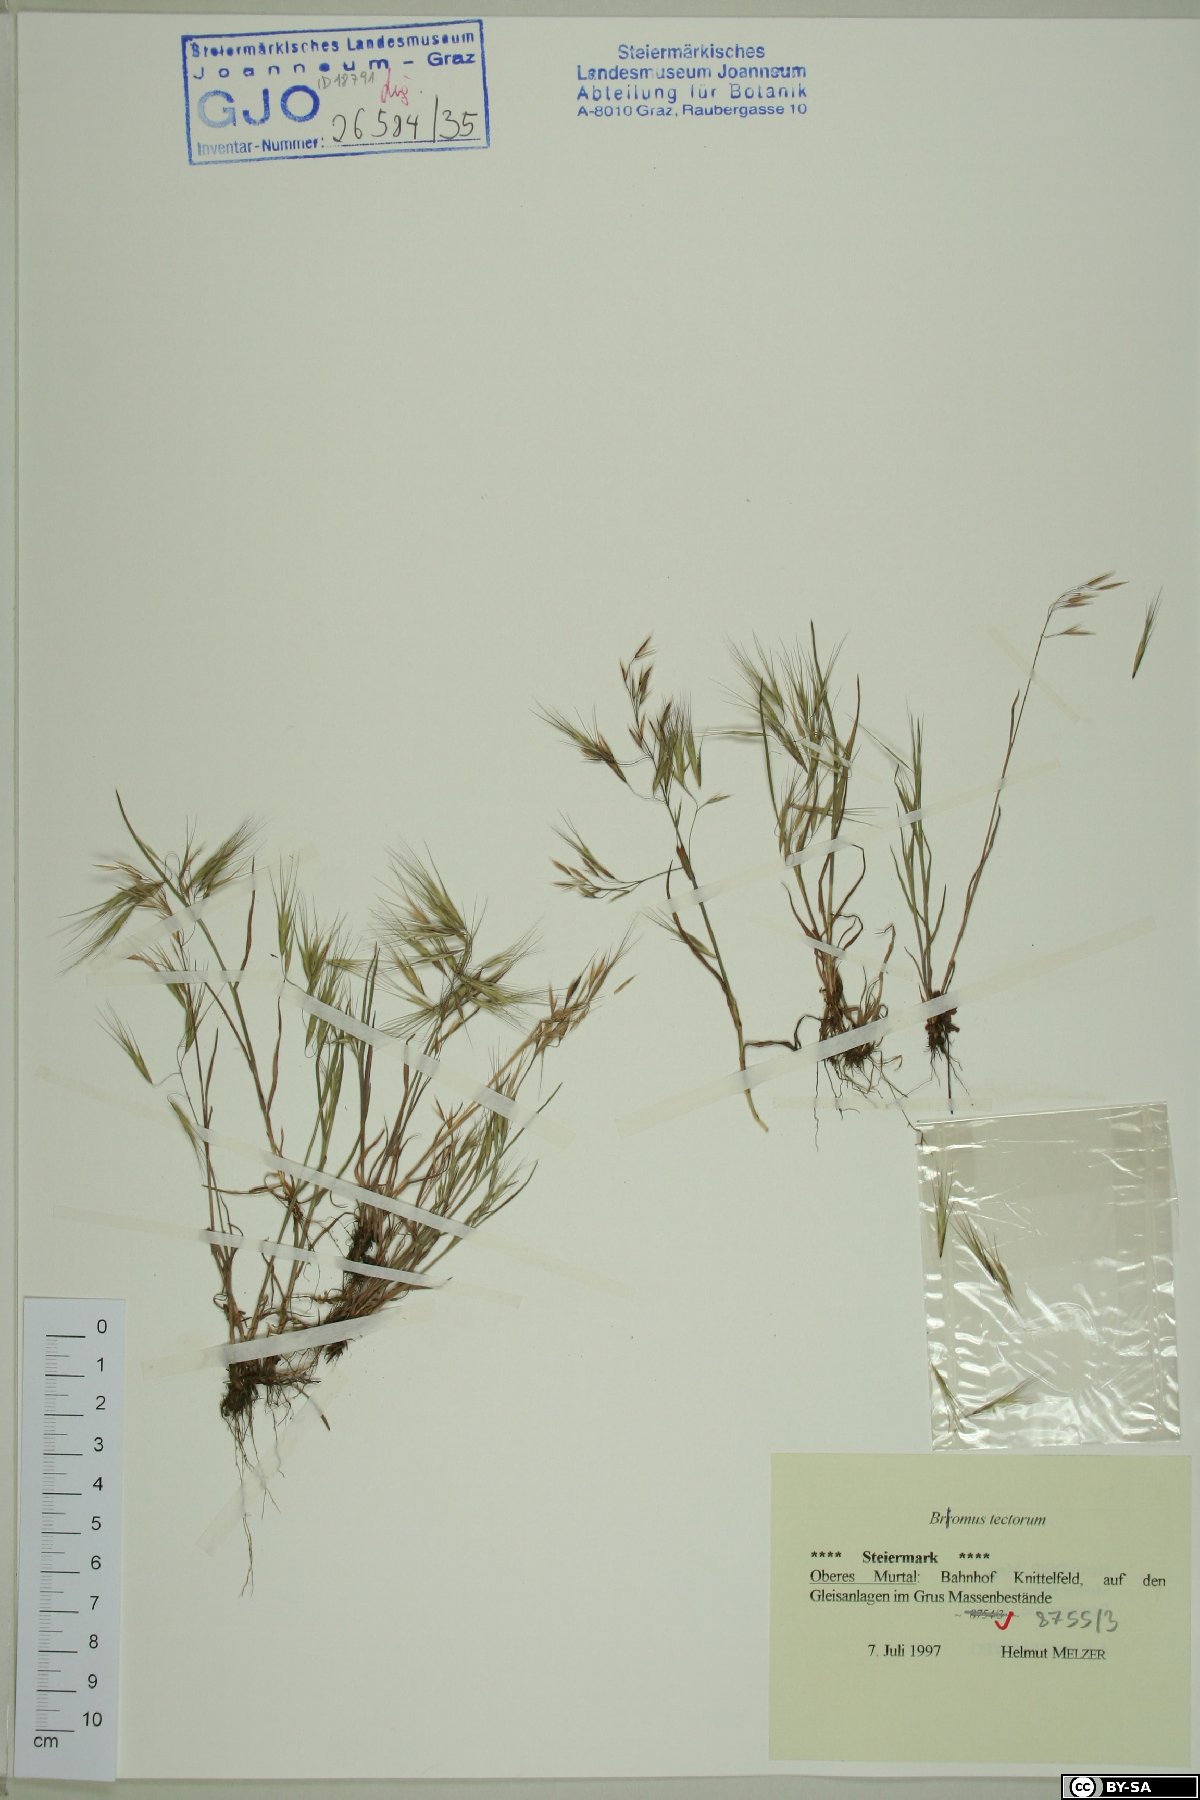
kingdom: Plantae
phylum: Tracheophyta
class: Liliopsida
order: Poales
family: Poaceae
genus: Bromus
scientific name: Bromus tectorum
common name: Cheatgrass
